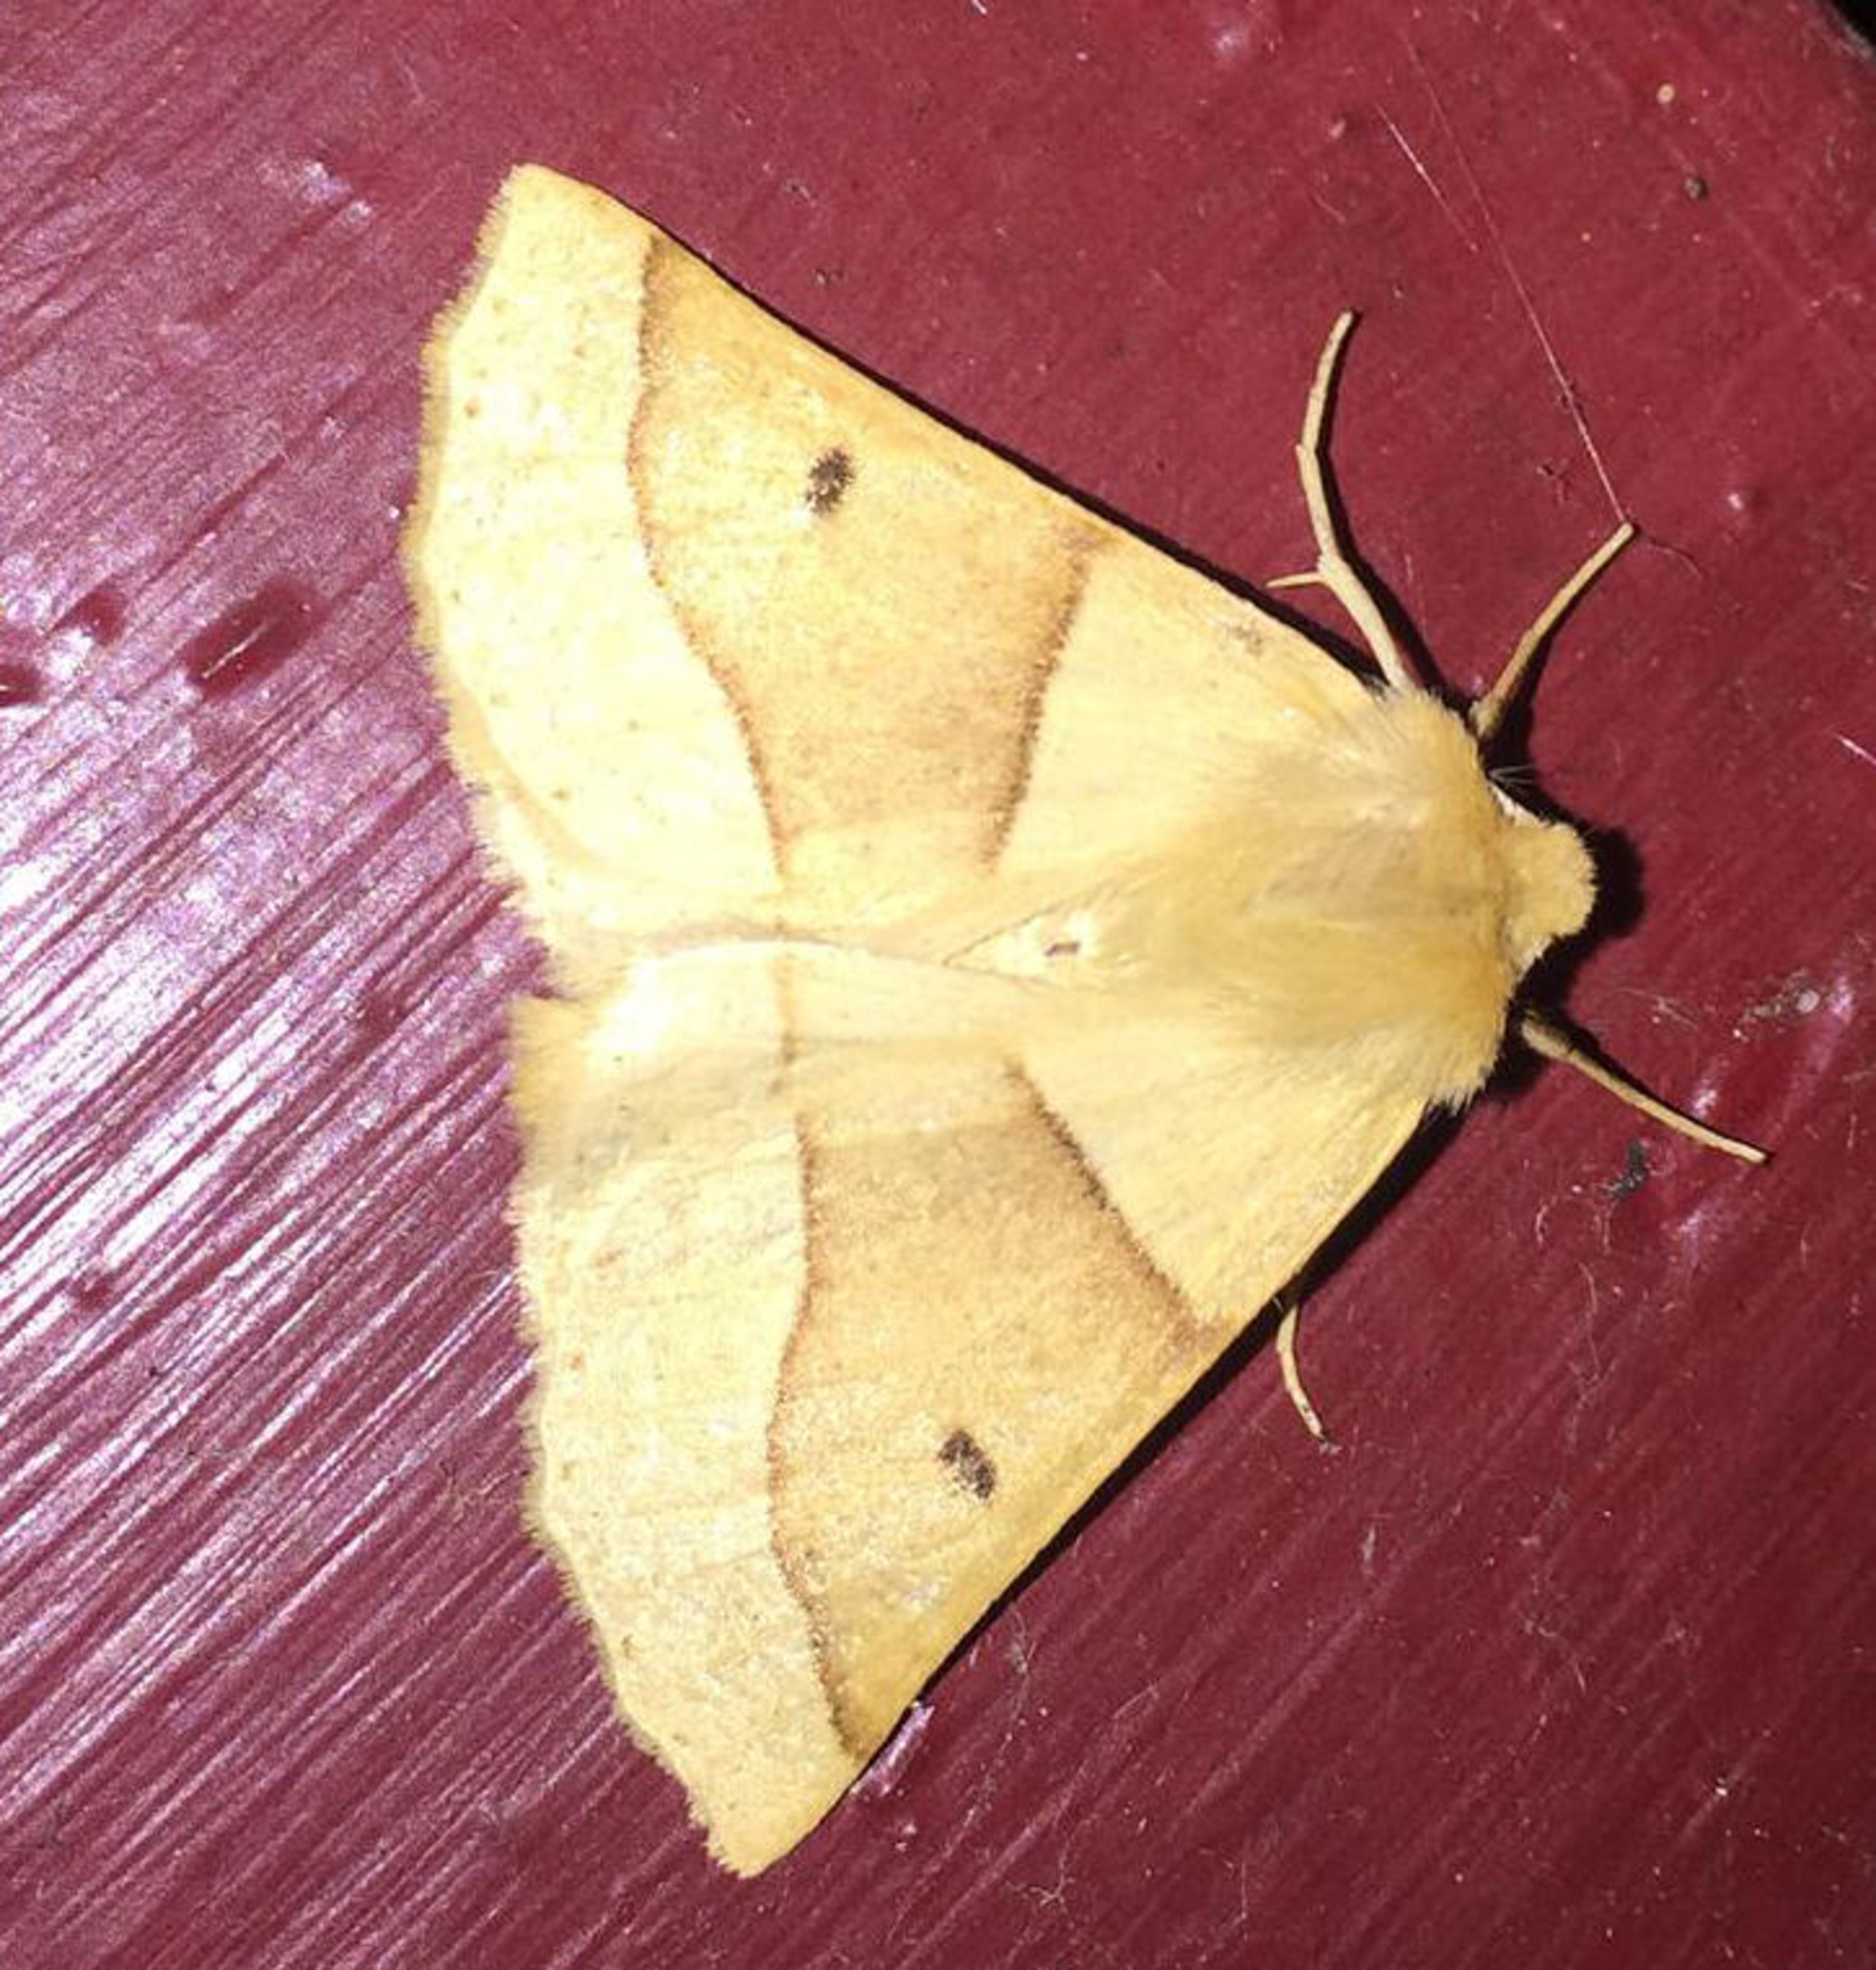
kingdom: Animalia
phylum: Arthropoda
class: Insecta
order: Lepidoptera
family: Geometridae
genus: Crocallis
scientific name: Crocallis elinguaria
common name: Okkergul rovmåler
